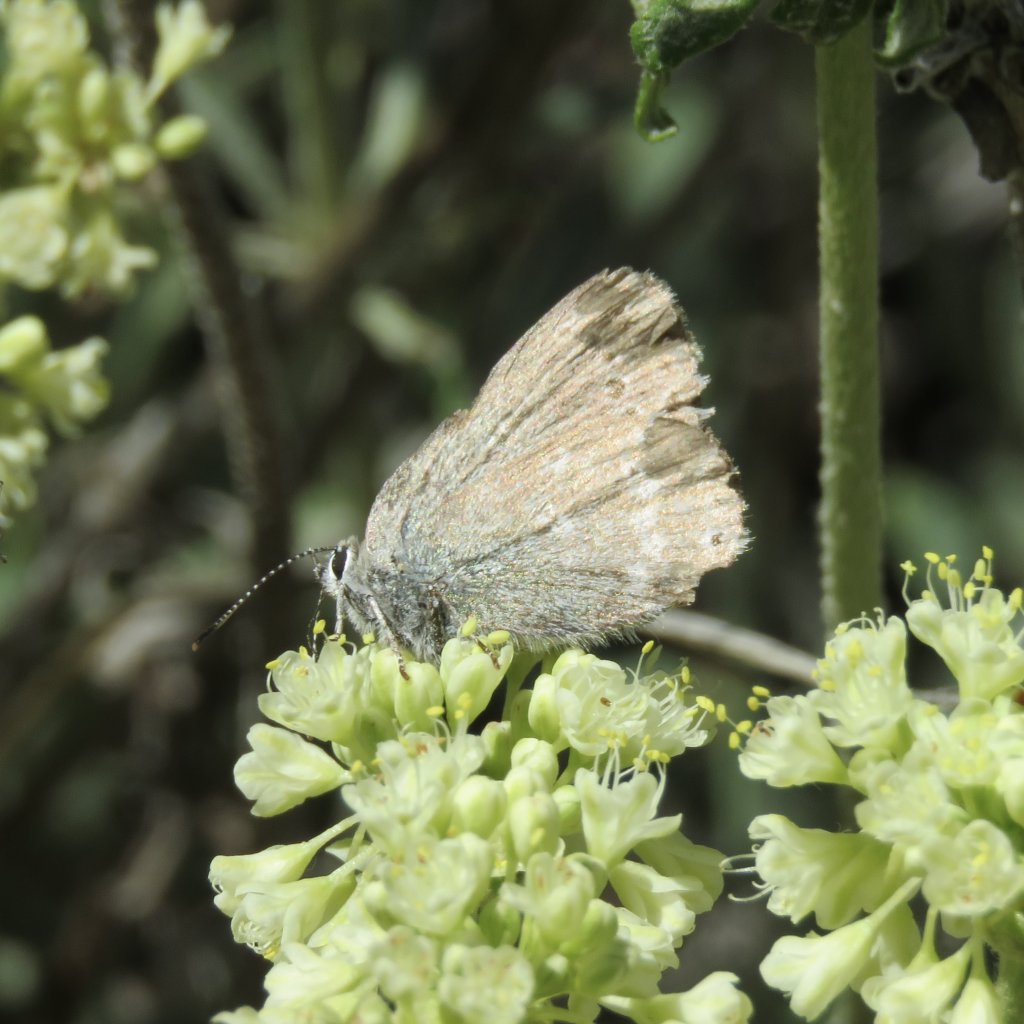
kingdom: Animalia
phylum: Arthropoda
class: Insecta
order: Lepidoptera
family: Lycaenidae
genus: Satyrium
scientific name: Satyrium fuliginosa
